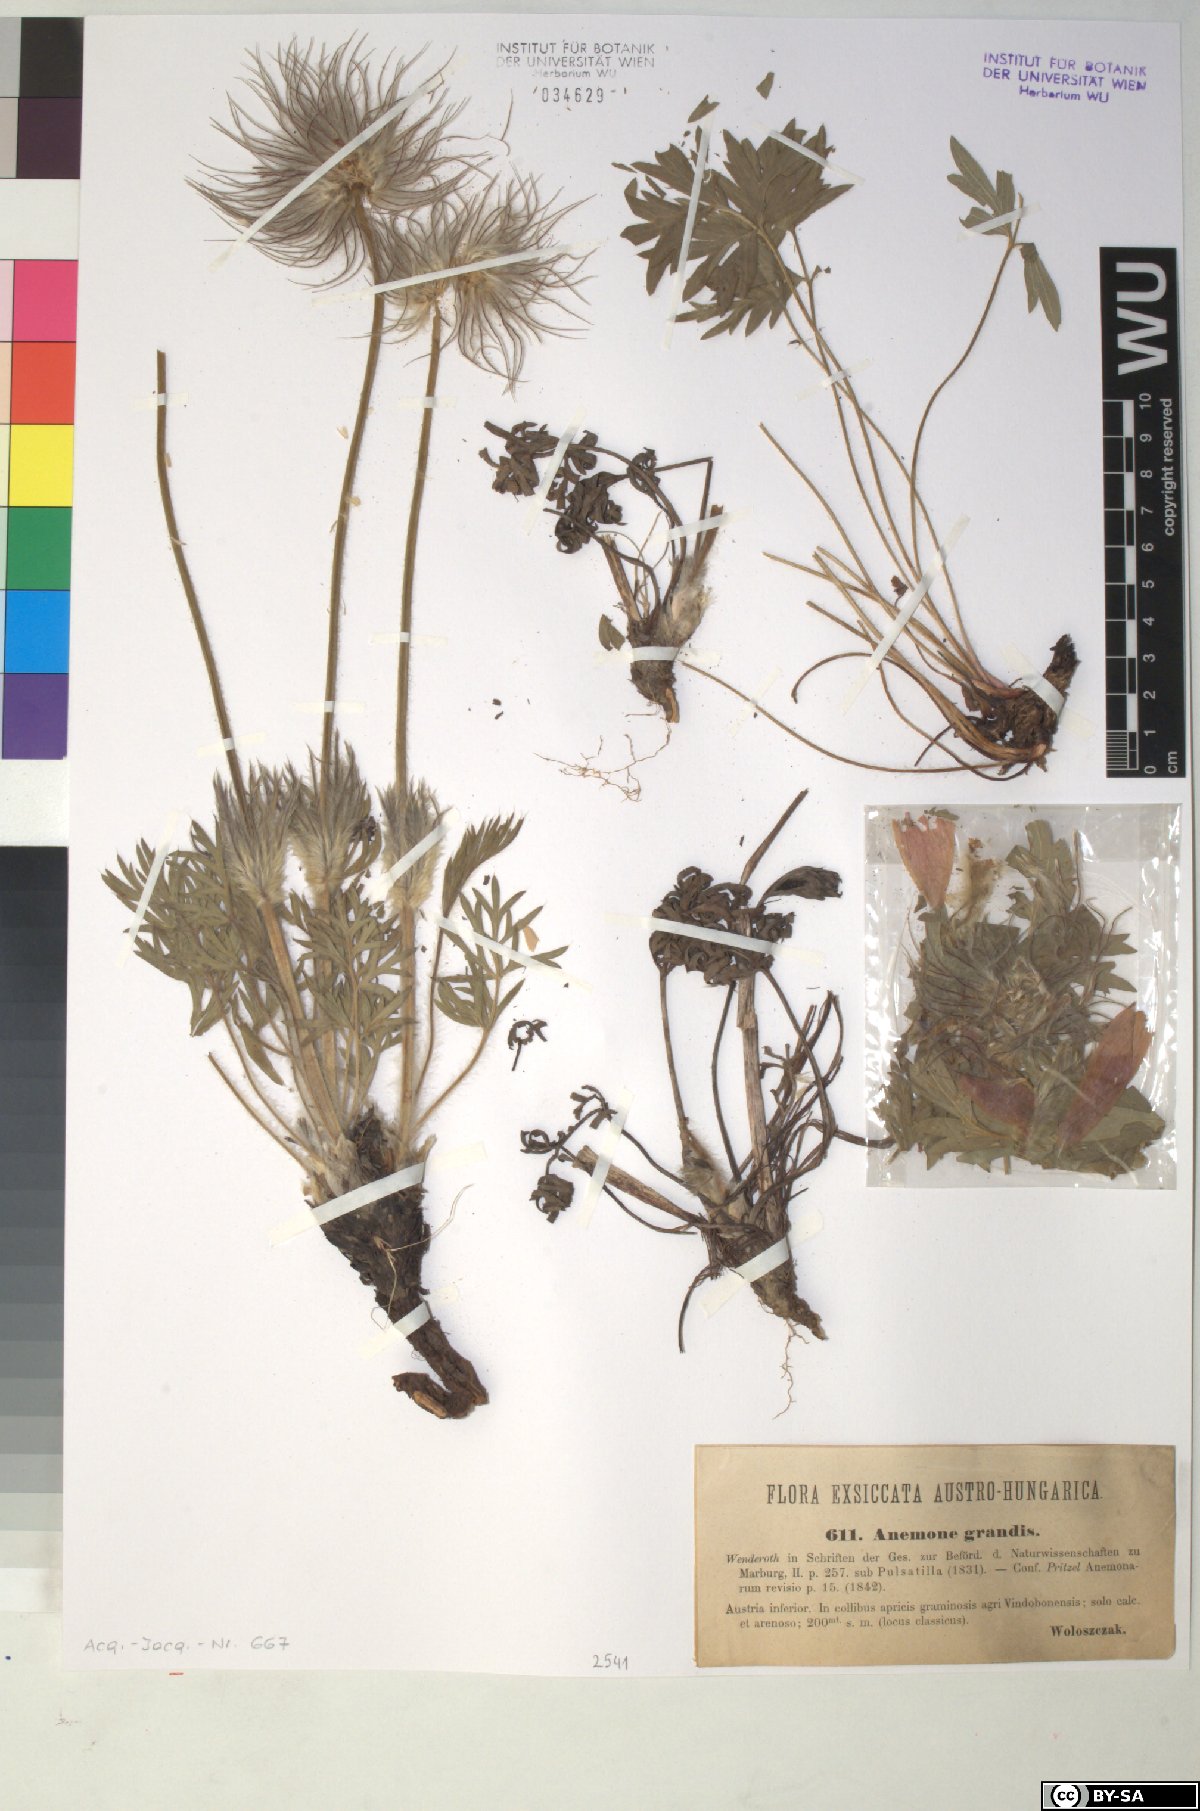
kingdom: Plantae
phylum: Tracheophyta
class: Magnoliopsida
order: Ranunculales
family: Ranunculaceae
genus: Pulsatilla
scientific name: Pulsatilla grandis
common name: Greater pasque flower
